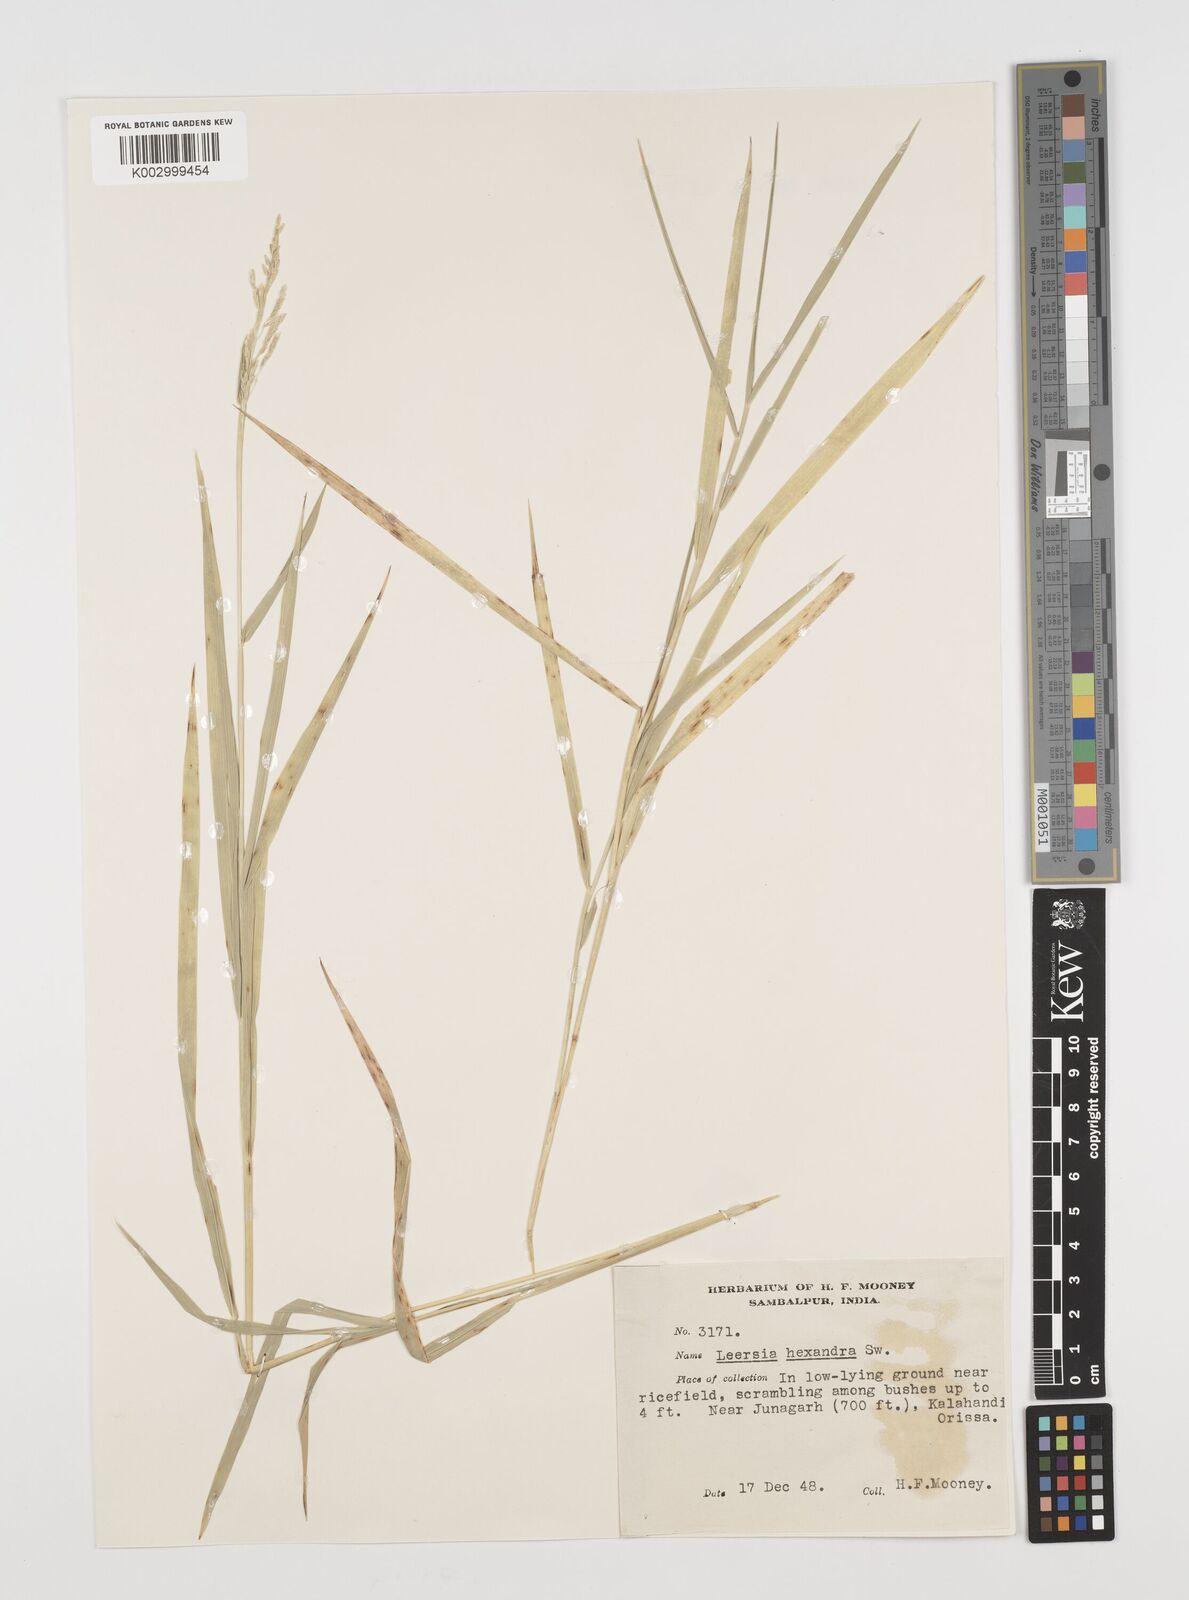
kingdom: Plantae
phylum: Tracheophyta
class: Liliopsida
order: Poales
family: Poaceae
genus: Leersia
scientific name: Leersia hexandra
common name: Southern cut grass
